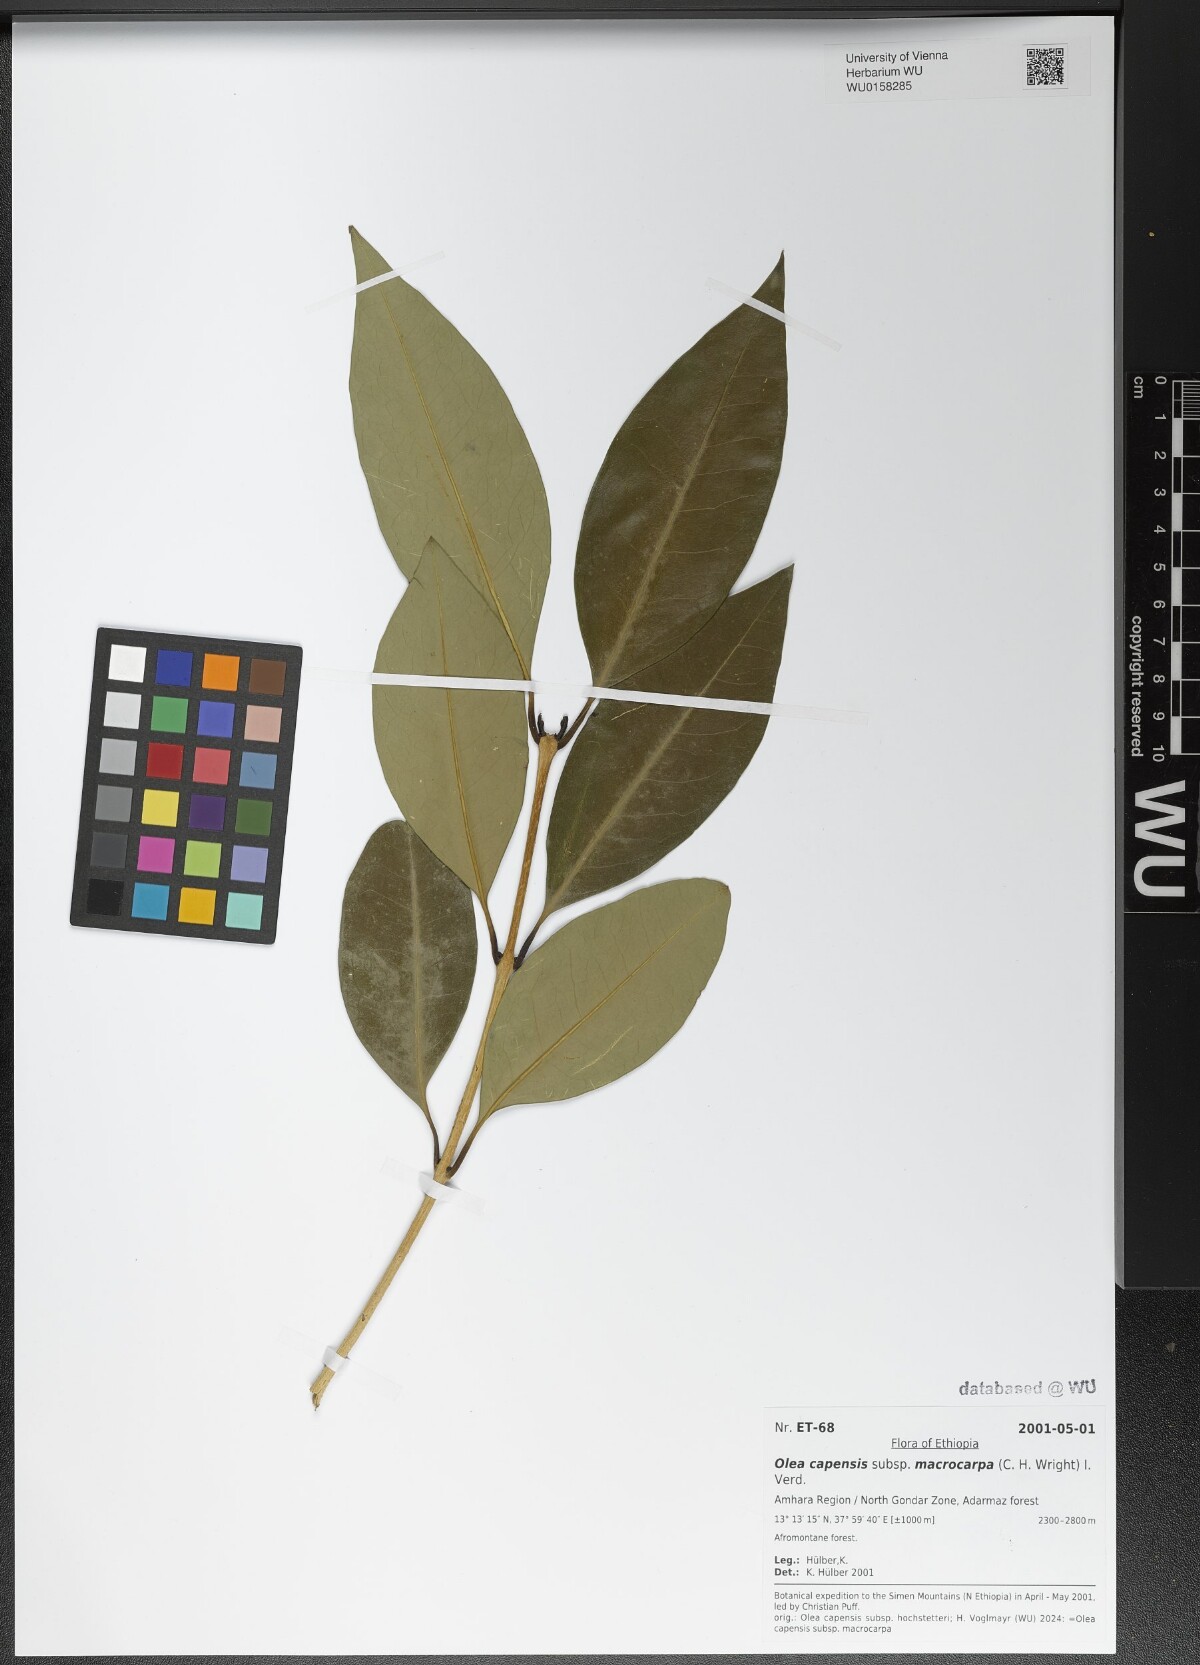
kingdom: Plantae
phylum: Tracheophyta
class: Magnoliopsida
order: Lamiales
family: Oleaceae
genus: Olea
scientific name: Olea capensis
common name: Black ironwood
